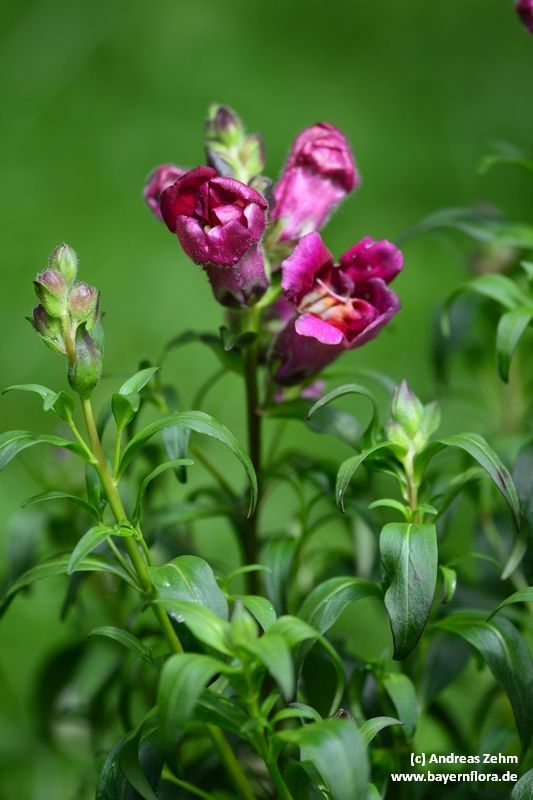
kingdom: Plantae
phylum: Tracheophyta
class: Magnoliopsida
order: Lamiales
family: Plantaginaceae
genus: Antirrhinum
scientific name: Antirrhinum majus
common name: Snapdragon
